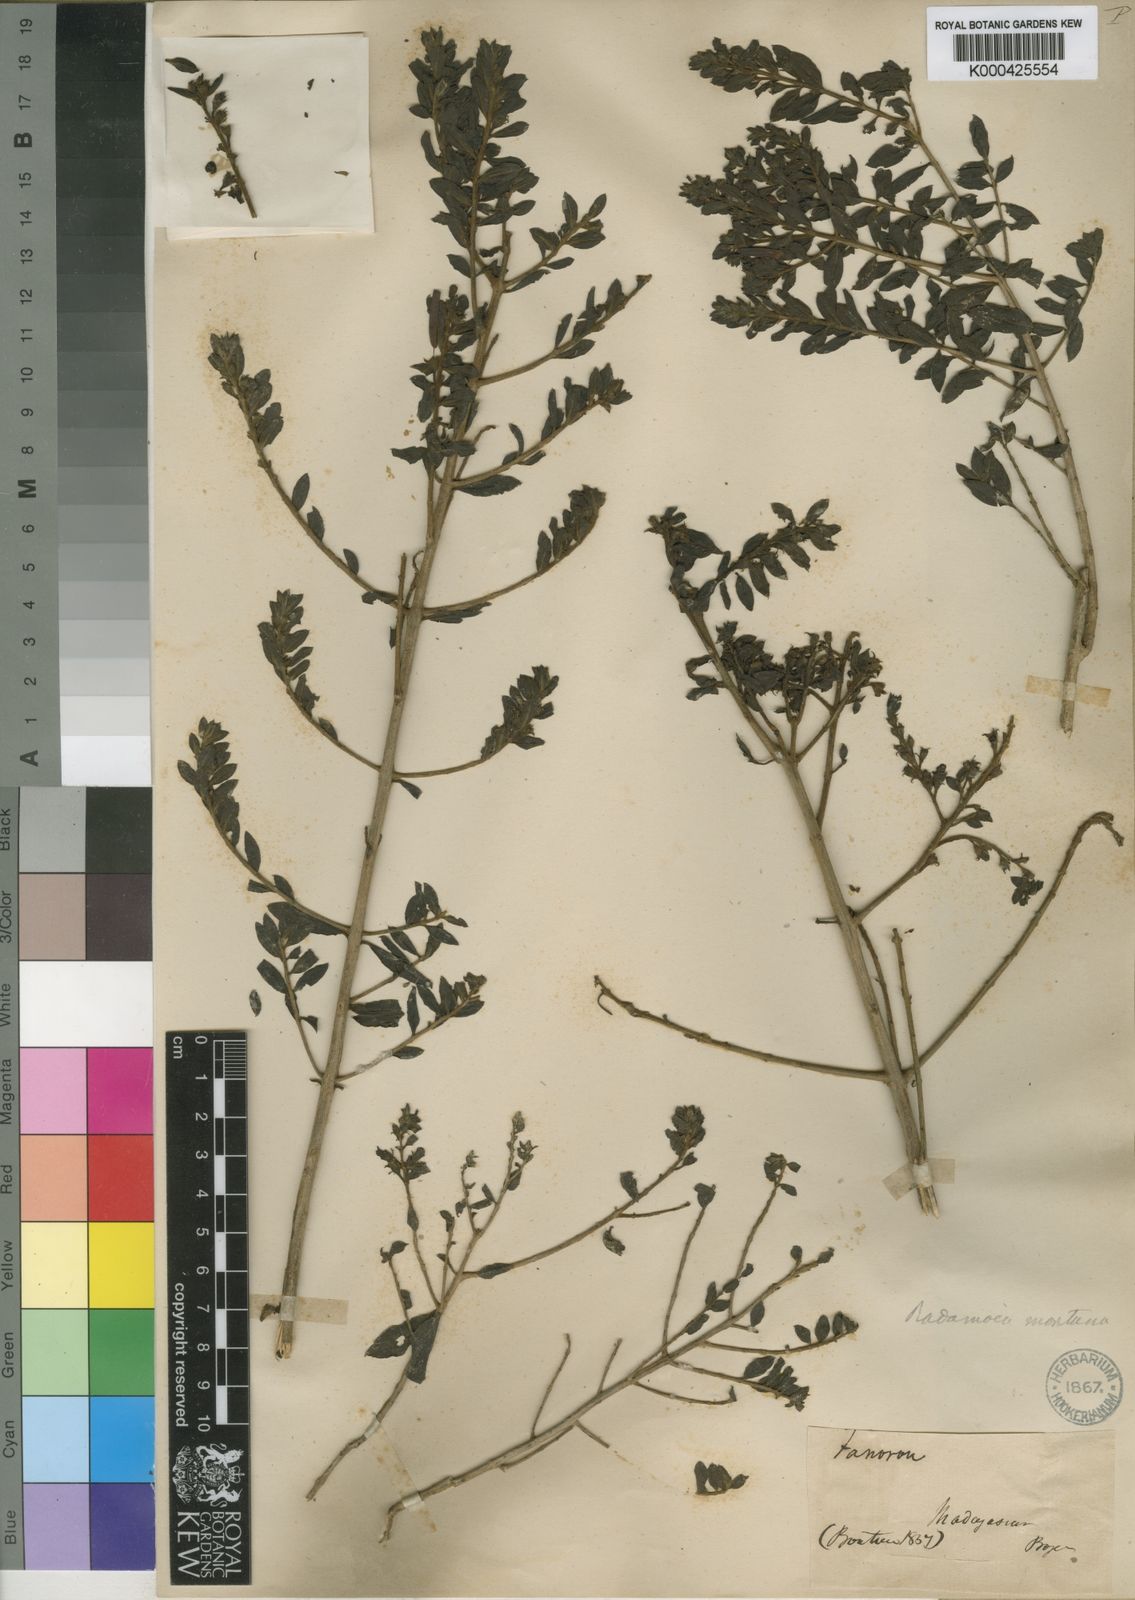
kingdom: Plantae
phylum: Tracheophyta
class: Magnoliopsida
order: Lamiales
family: Orobanchaceae
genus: Radamaea
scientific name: Radamaea montana
